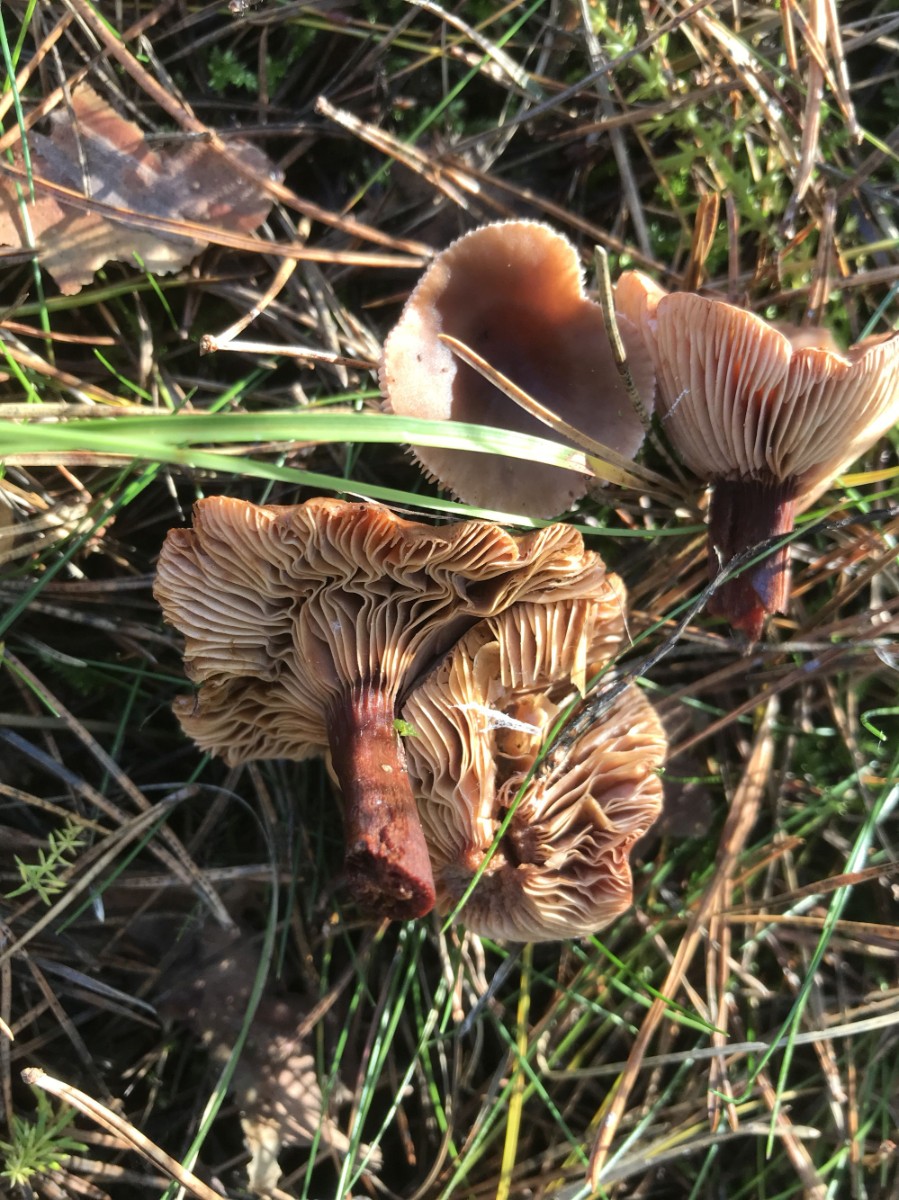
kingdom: Fungi
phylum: Basidiomycota
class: Agaricomycetes
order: Russulales
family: Russulaceae
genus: Lactarius
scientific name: Lactarius
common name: mælkehat
